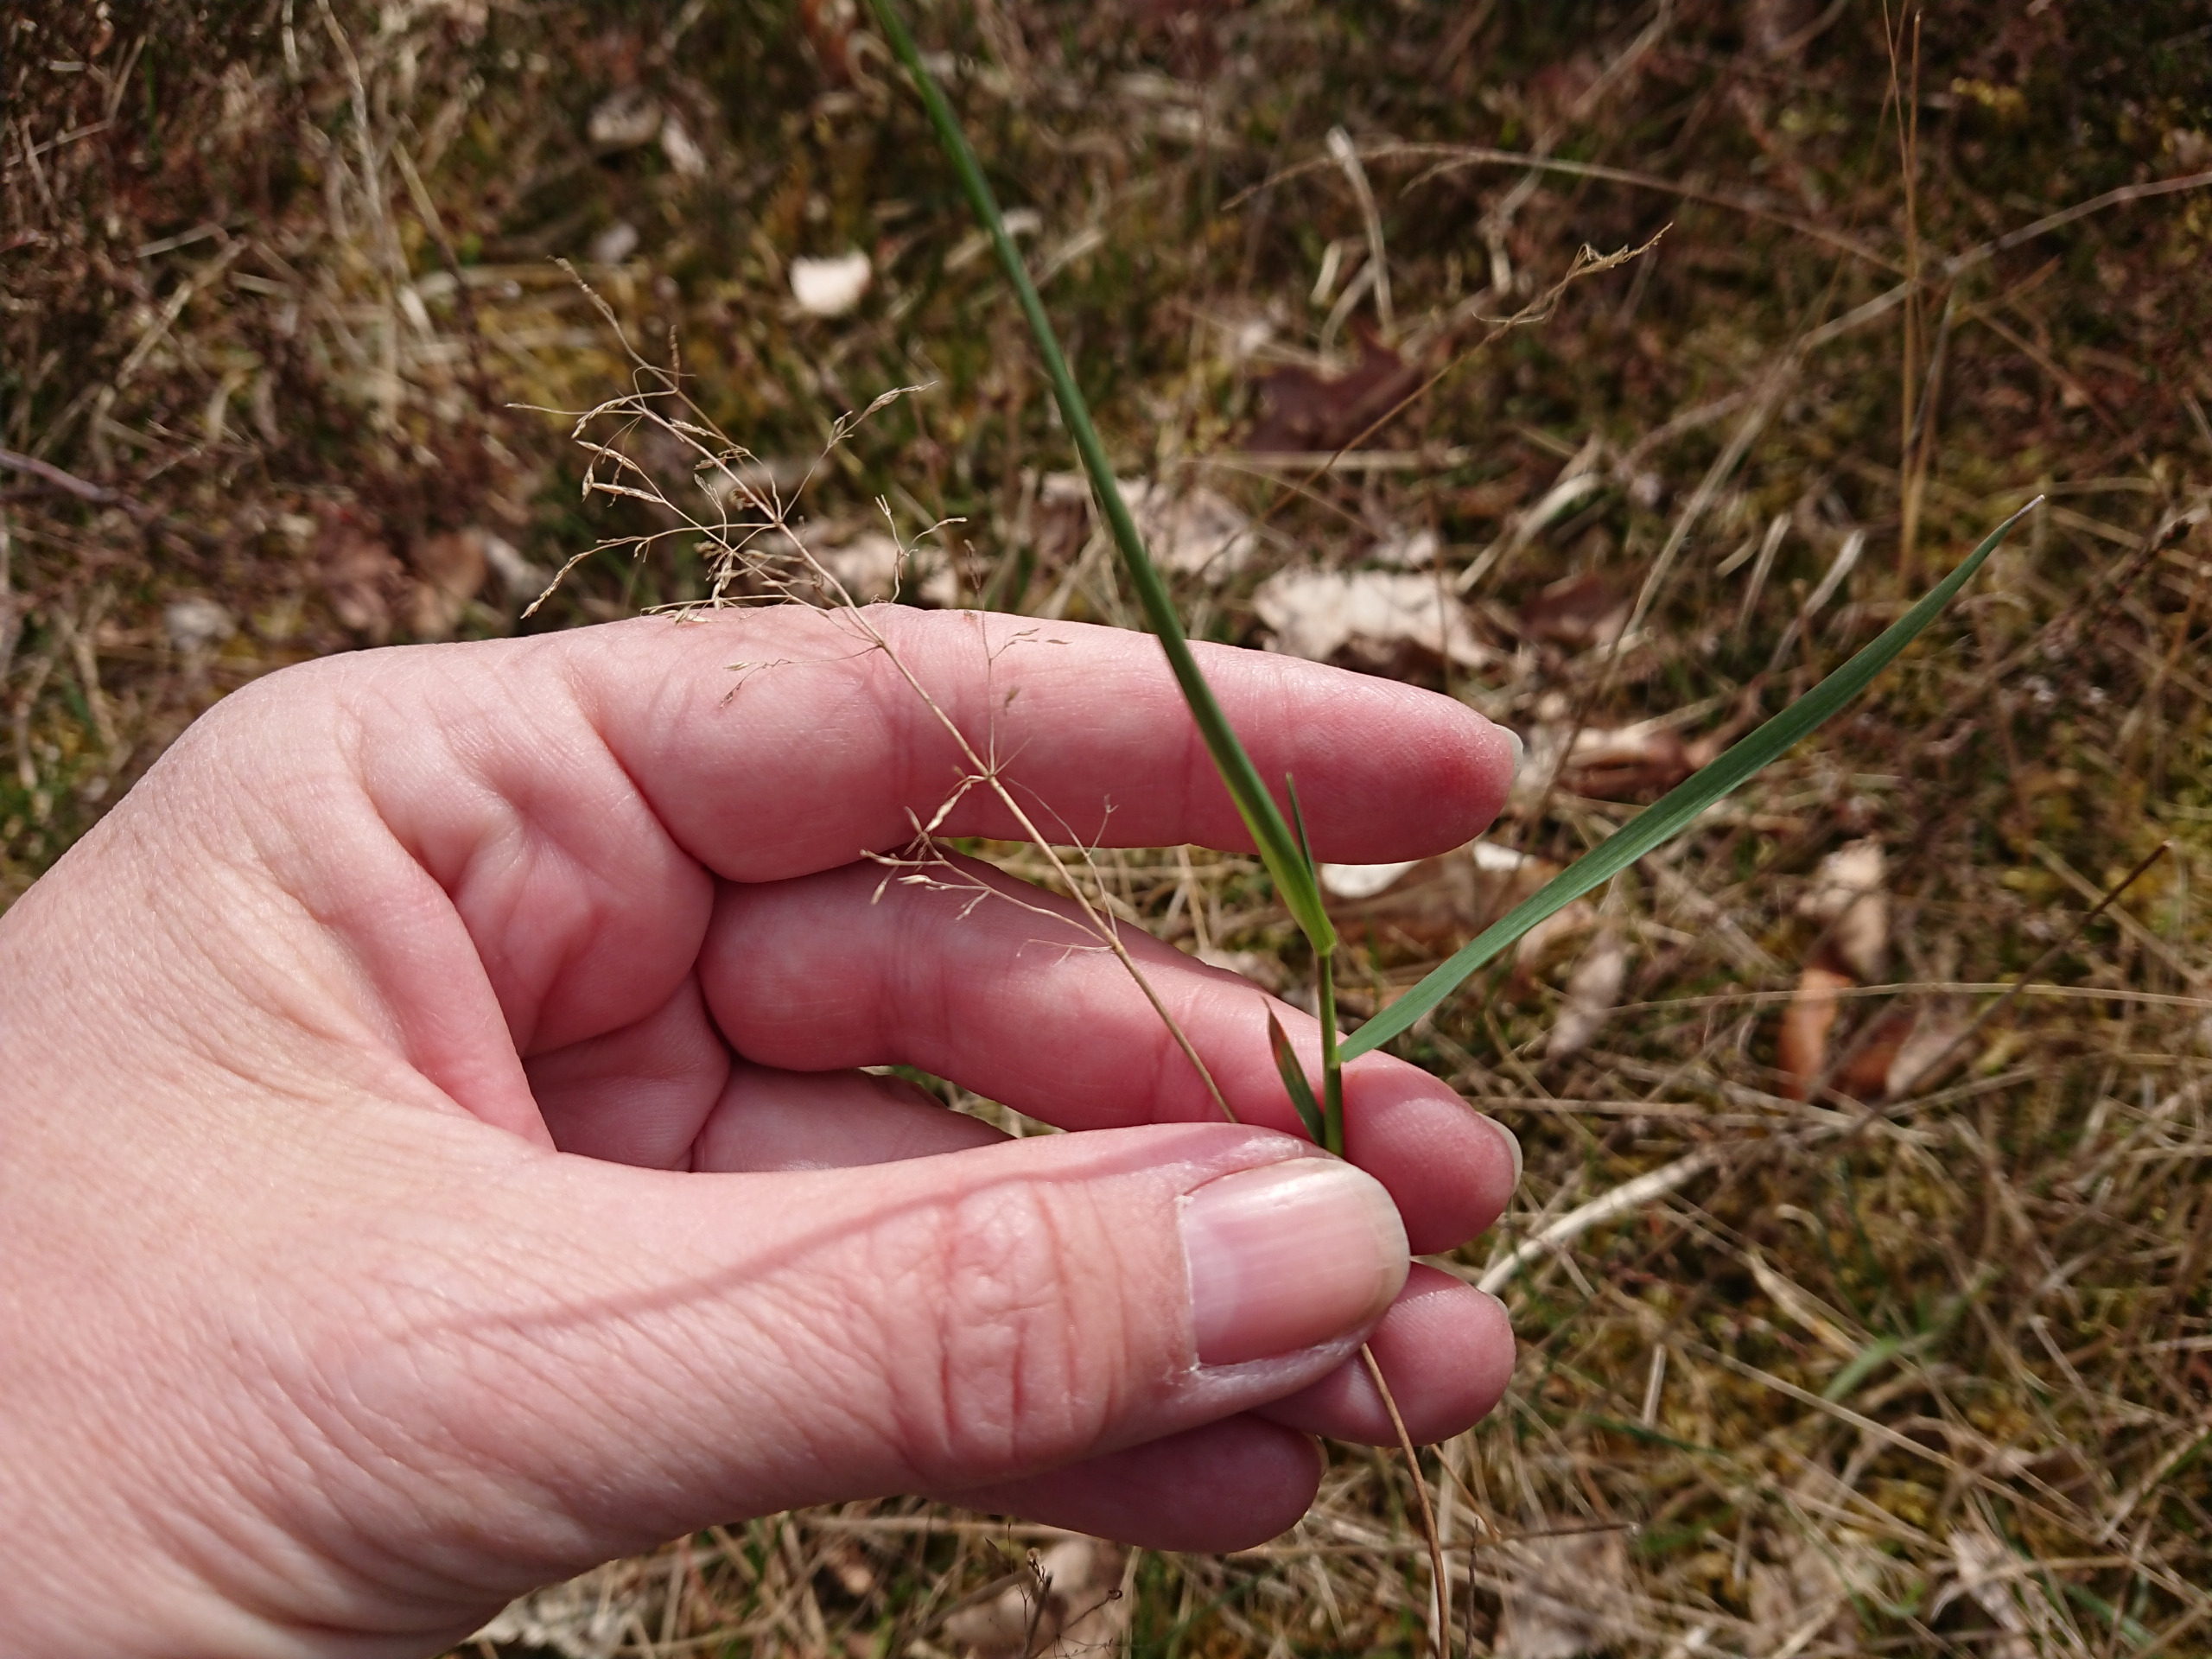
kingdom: Plantae
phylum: Tracheophyta
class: Liliopsida
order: Poales
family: Poaceae
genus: Agrostis
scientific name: Agrostis capillaris
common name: Almindelig hvene
